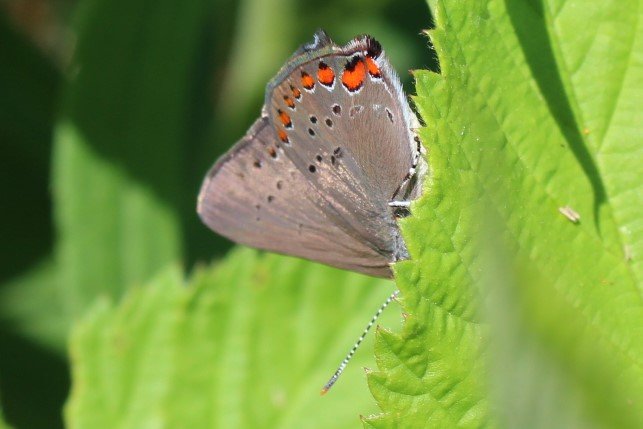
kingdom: Animalia
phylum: Arthropoda
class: Insecta
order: Lepidoptera
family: Lycaenidae
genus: Harkenclenus
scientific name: Harkenclenus titus
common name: Coral Hairstreak
